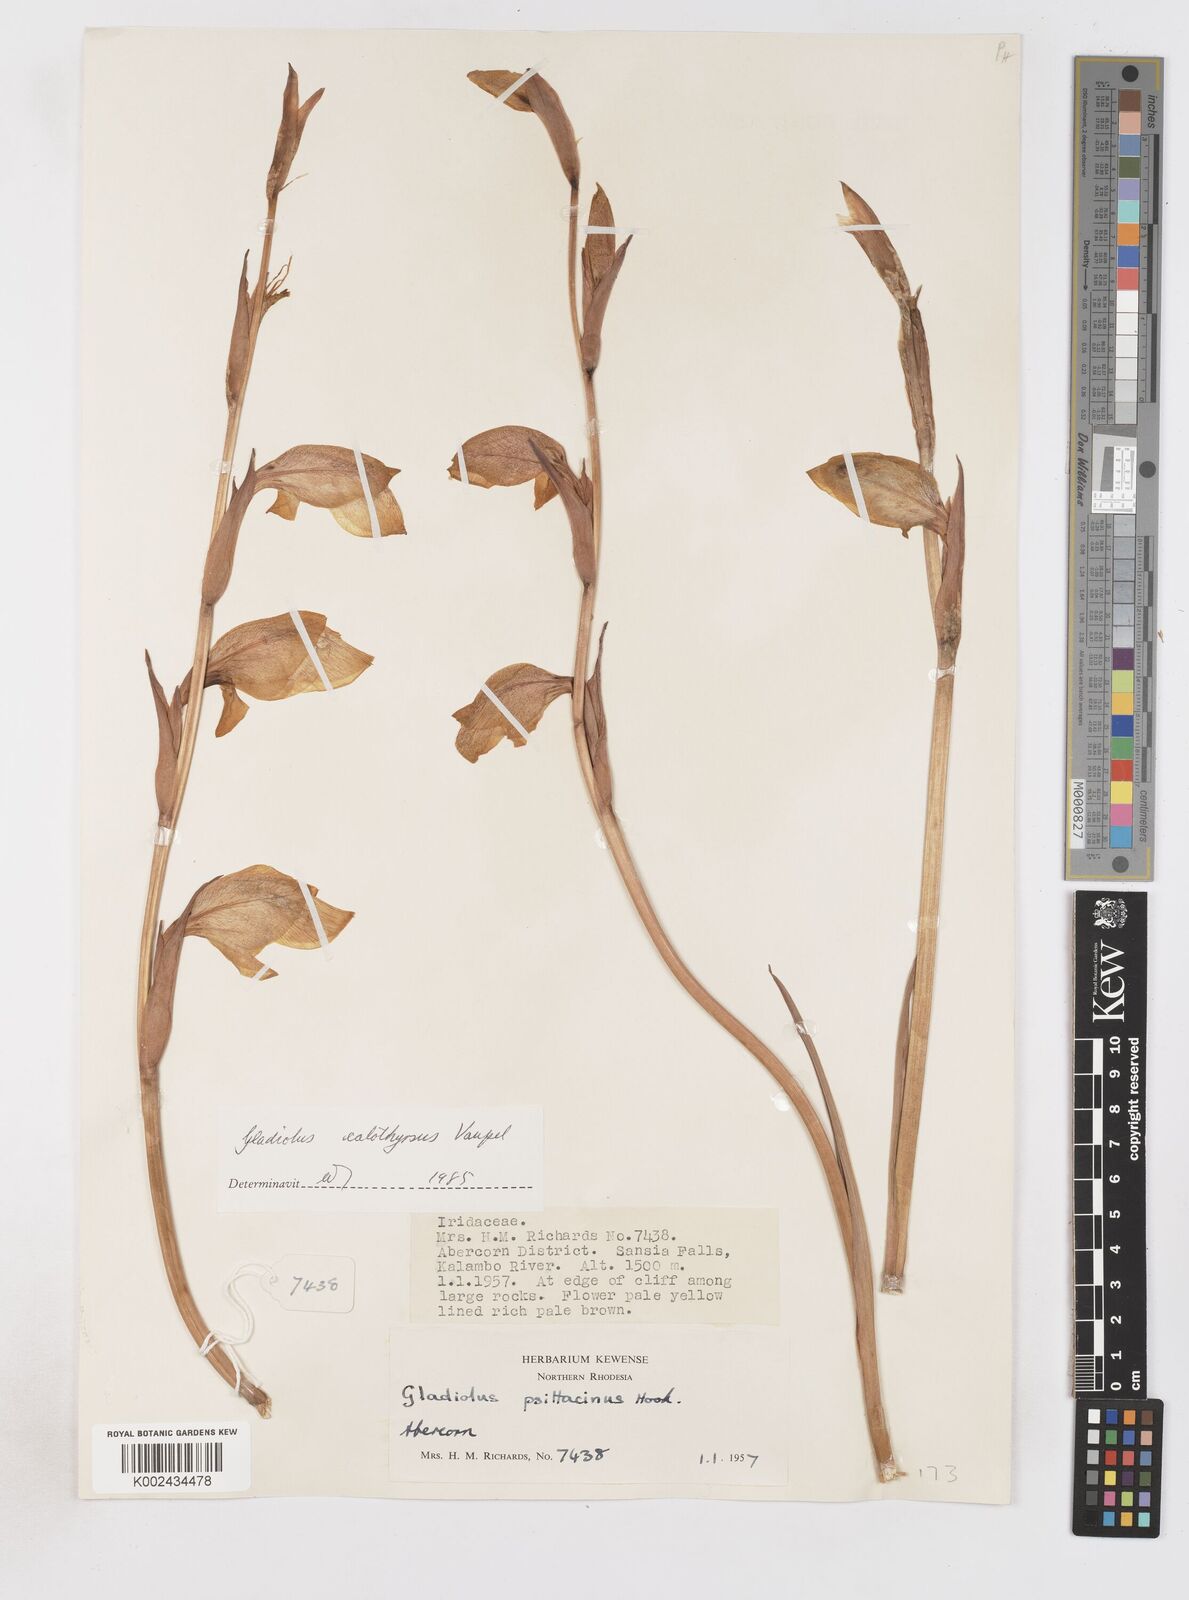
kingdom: Plantae
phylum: Tracheophyta
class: Liliopsida
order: Asparagales
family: Iridaceae
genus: Gladiolus
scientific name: Gladiolus dalenii
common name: Cornflag
